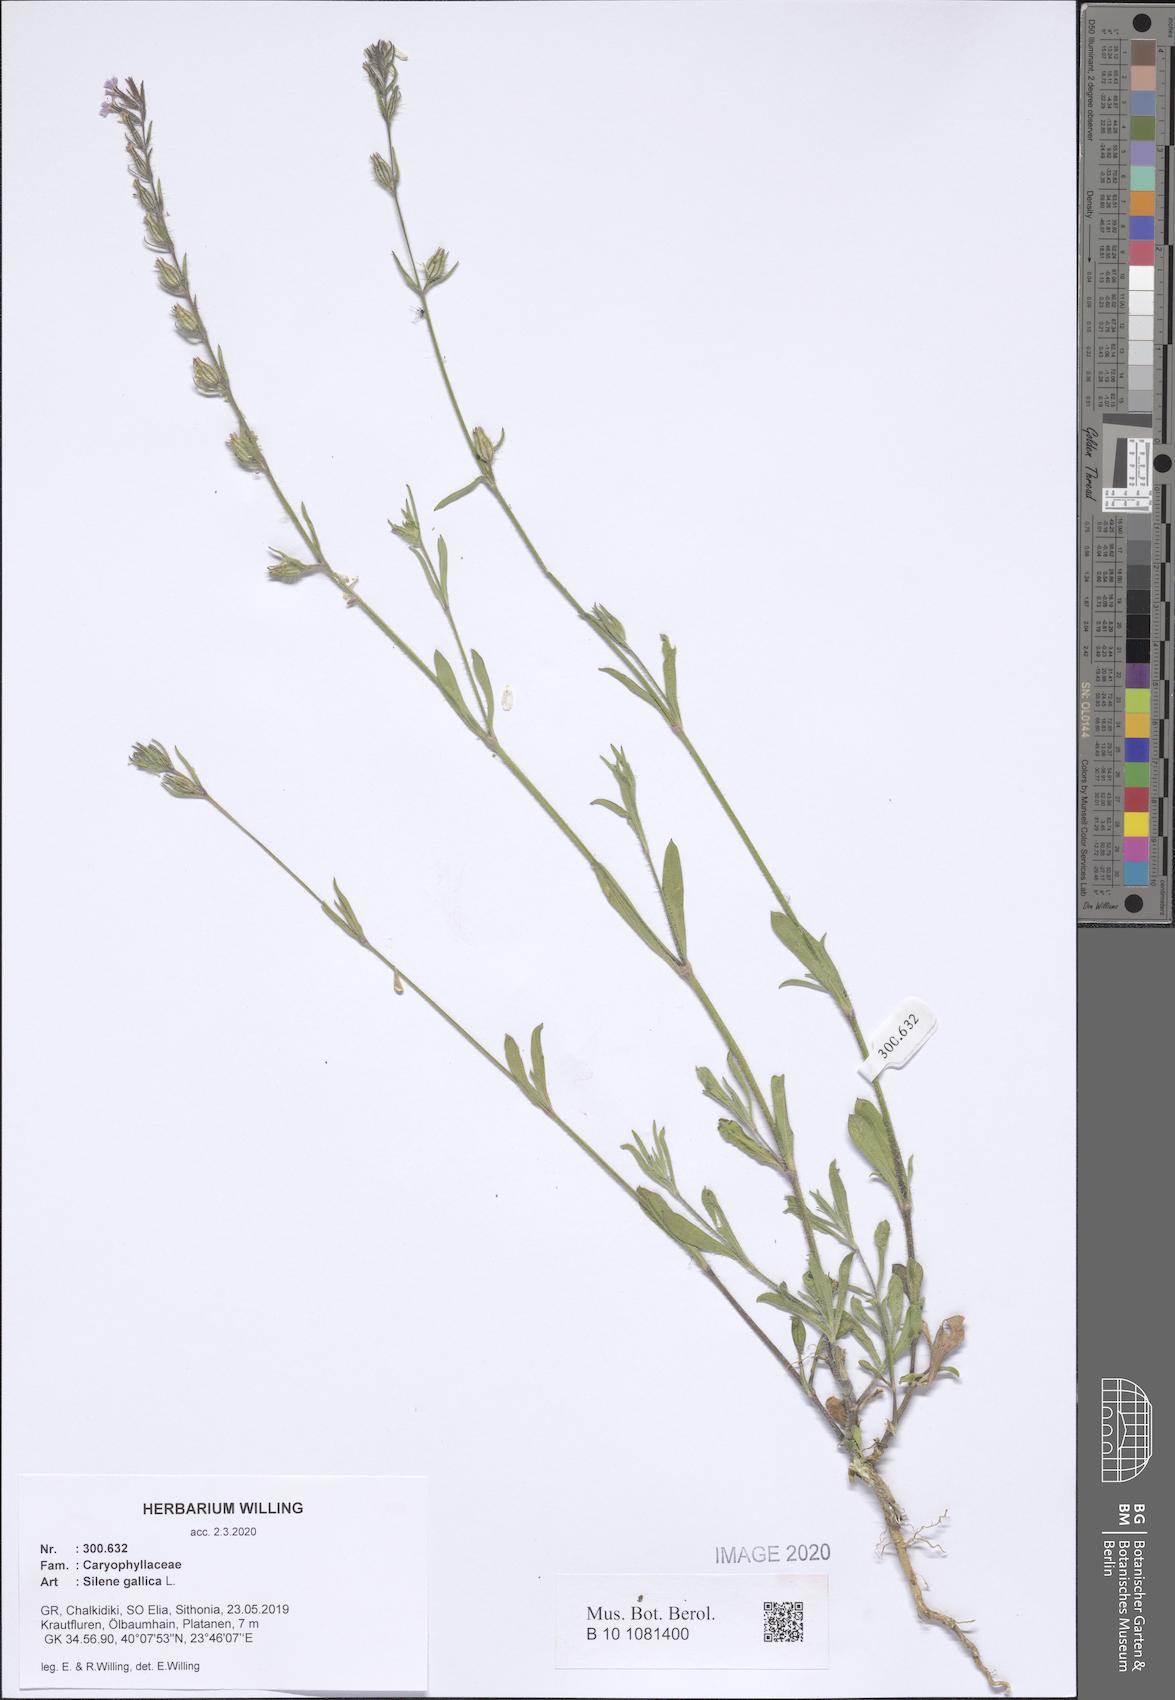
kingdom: Plantae
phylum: Tracheophyta
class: Magnoliopsida
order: Caryophyllales
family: Caryophyllaceae
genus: Silene
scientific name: Silene gallica
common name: Small-flowered catchfly
